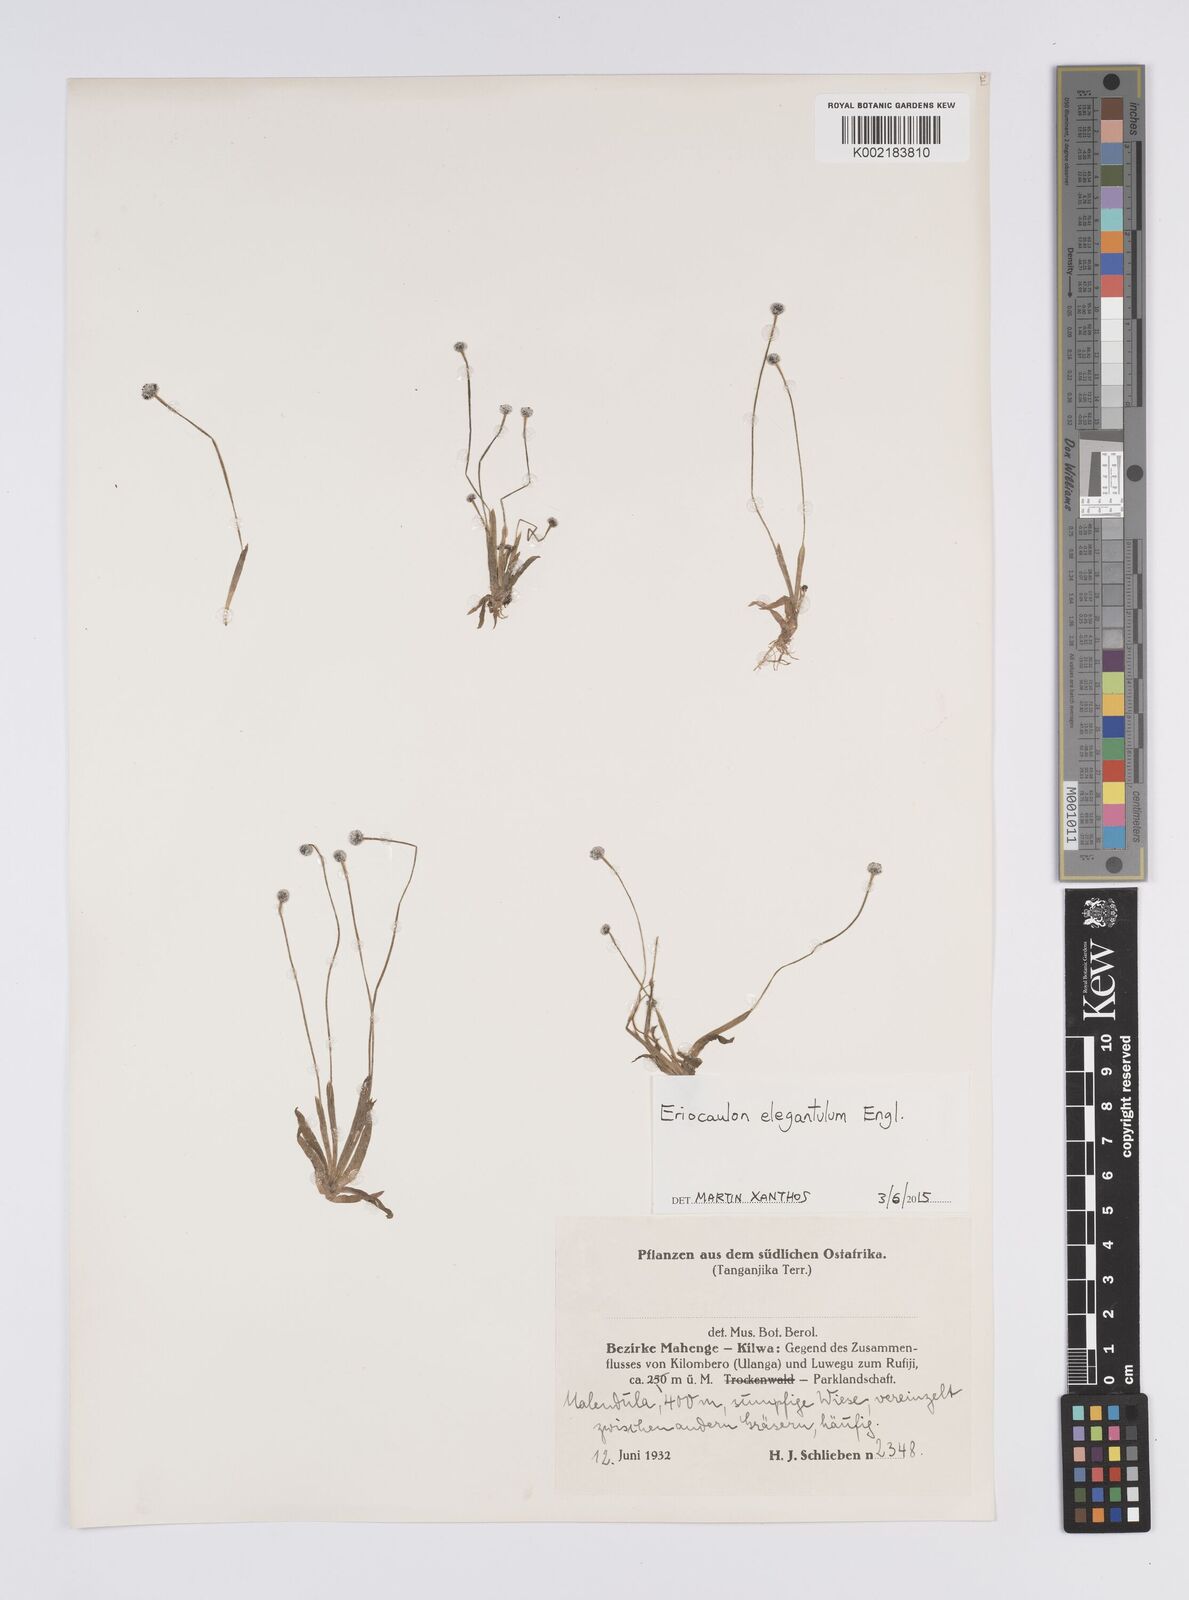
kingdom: Plantae
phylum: Tracheophyta
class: Liliopsida
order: Poales
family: Eriocaulaceae
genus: Eriocaulon
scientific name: Eriocaulon elegantulum
